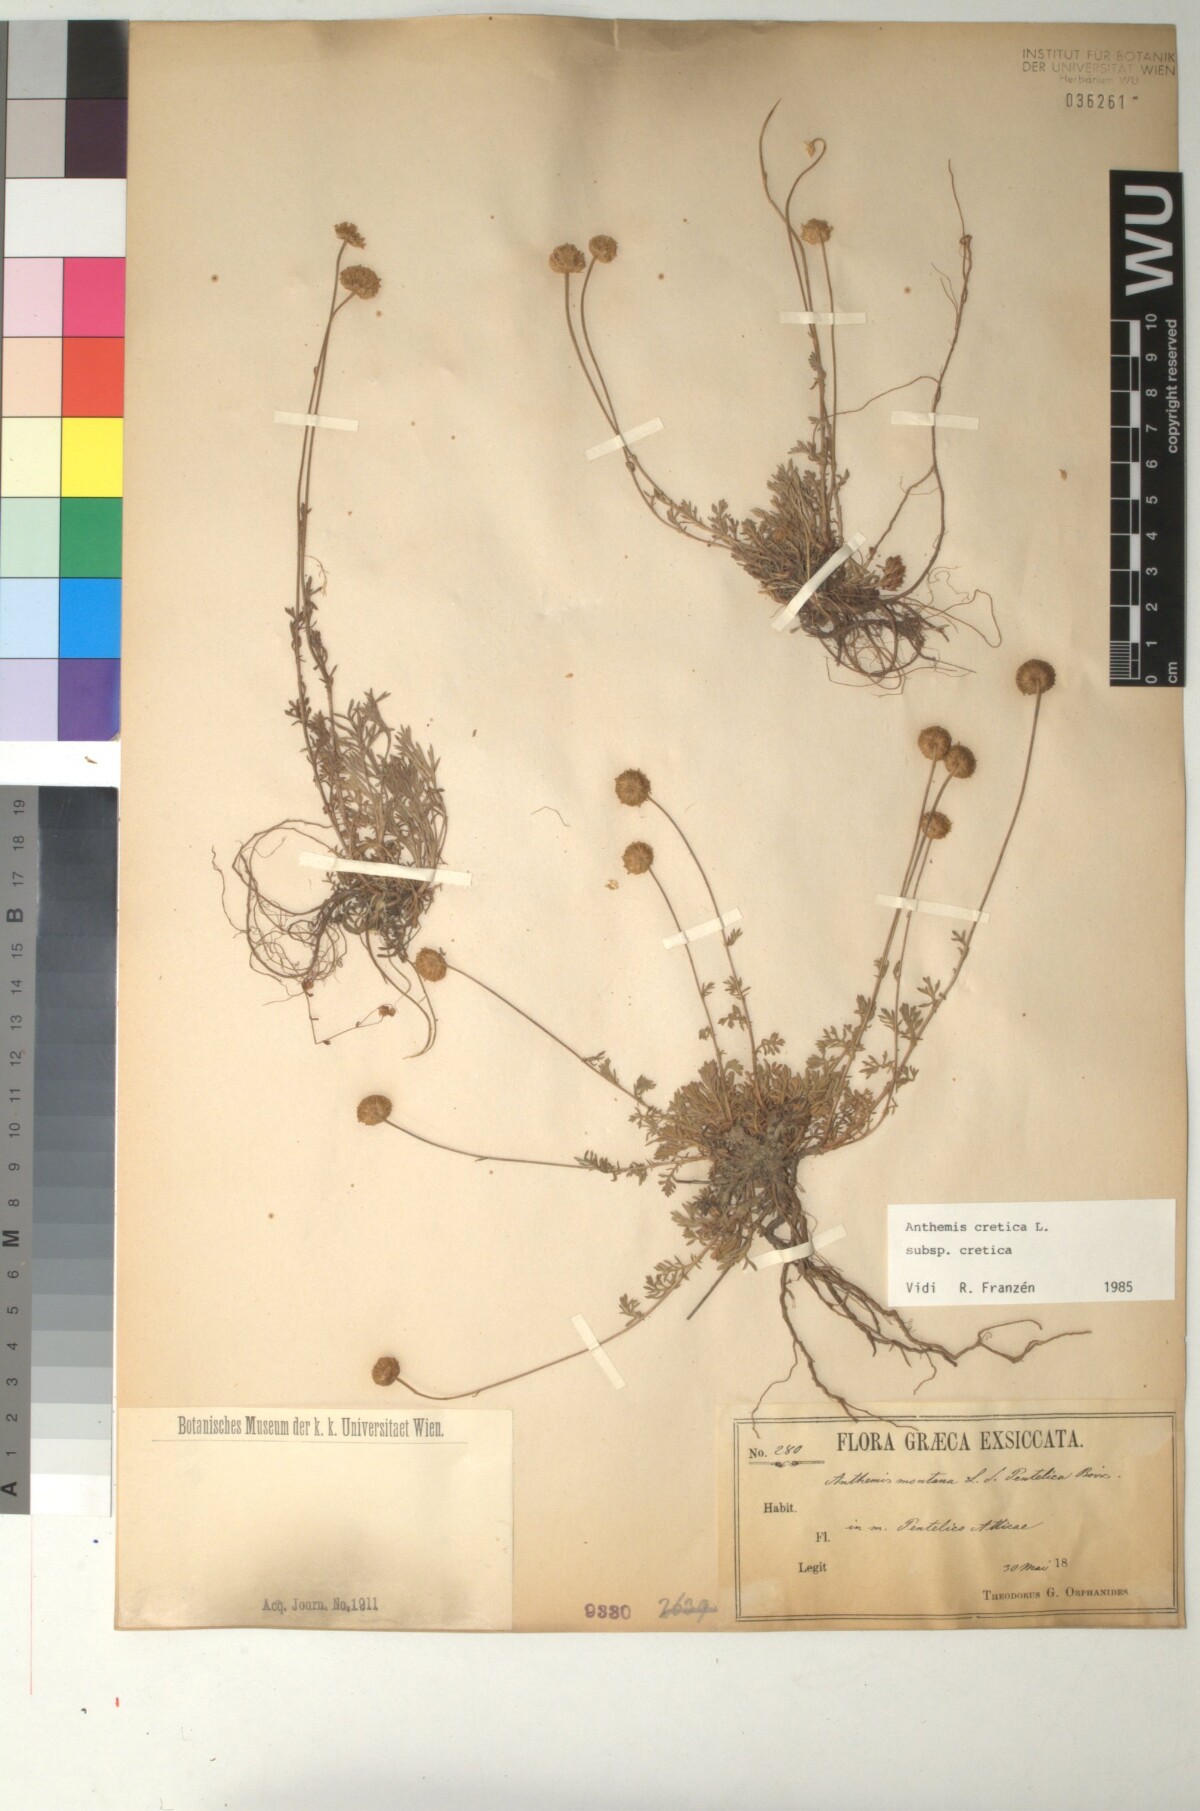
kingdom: Plantae
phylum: Tracheophyta
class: Magnoliopsida
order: Asterales
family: Asteraceae
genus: Anthemis
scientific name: Anthemis cretica
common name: Mountain dog-daisy
